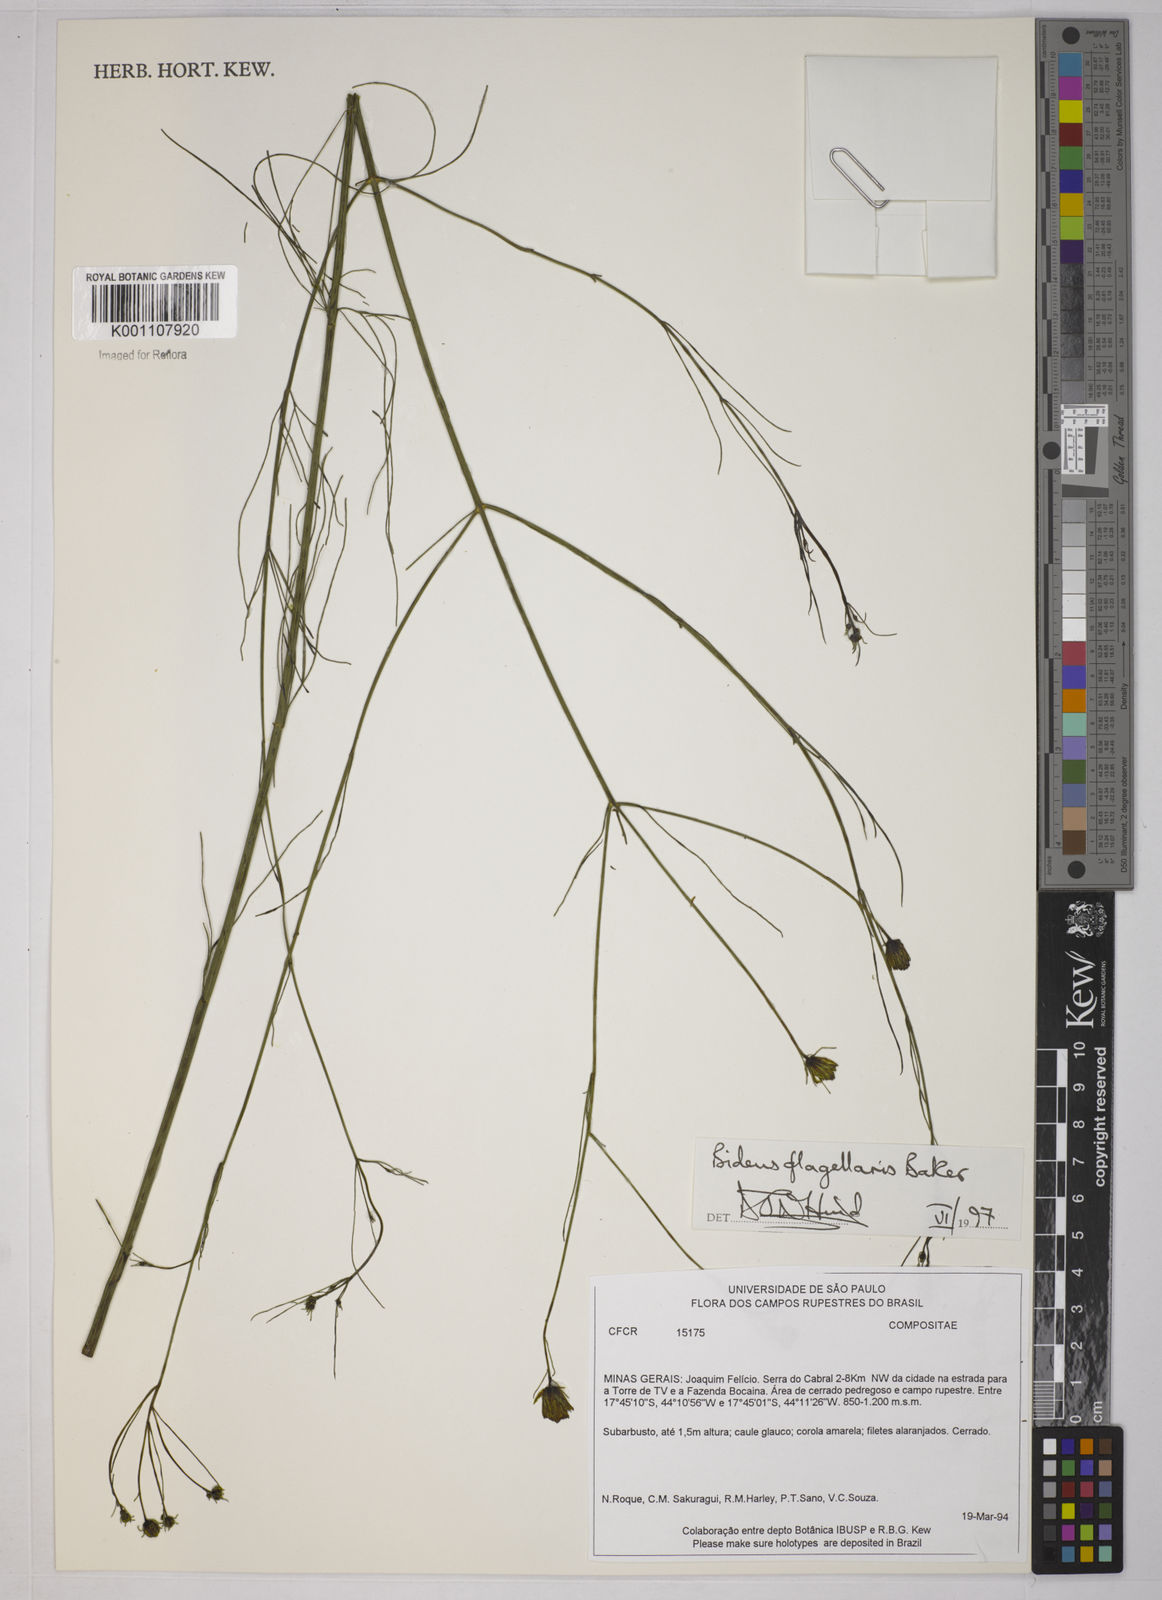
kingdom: Plantae
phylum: Tracheophyta
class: Magnoliopsida
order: Asterales
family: Asteraceae
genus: Bidens
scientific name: Bidens flagellaris
